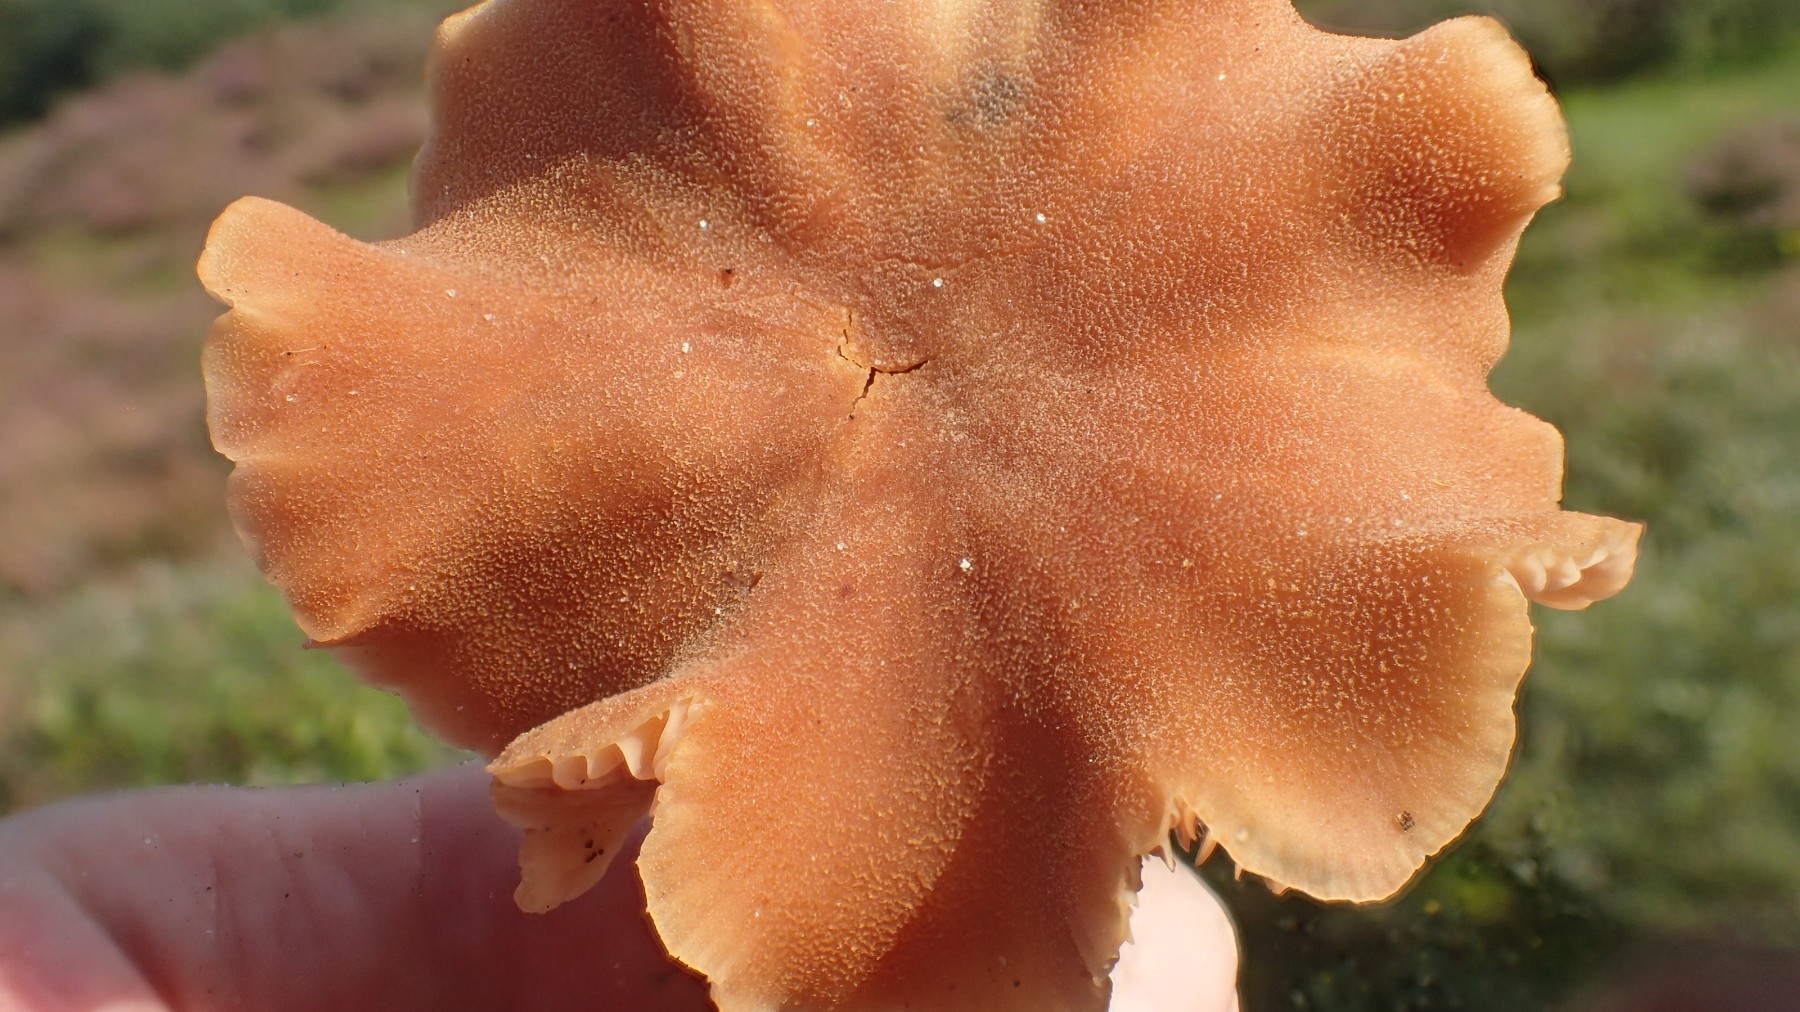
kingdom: Fungi
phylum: Basidiomycota
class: Agaricomycetes
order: Agaricales
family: Hydnangiaceae
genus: Laccaria
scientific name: Laccaria proxima
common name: stor ametysthat
